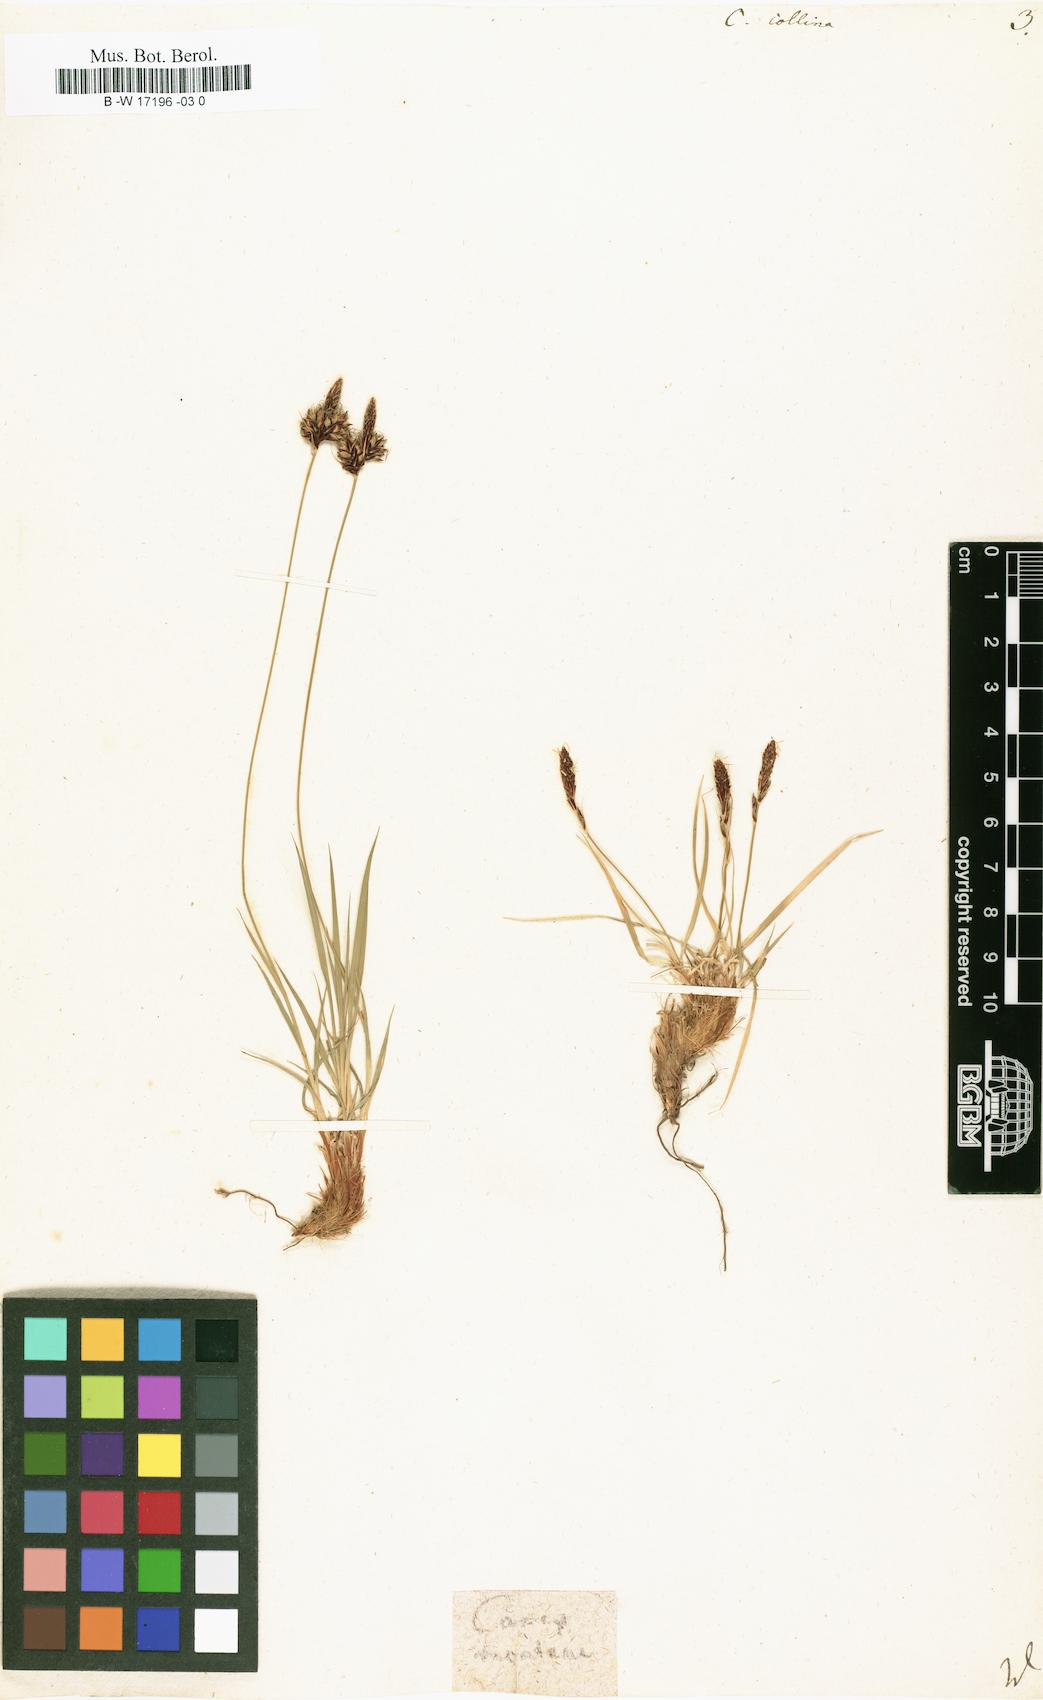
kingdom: Plantae
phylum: Tracheophyta
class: Liliopsida
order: Poales
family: Cyperaceae
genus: Carex
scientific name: Carex montana
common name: Soft-leaved sedge
